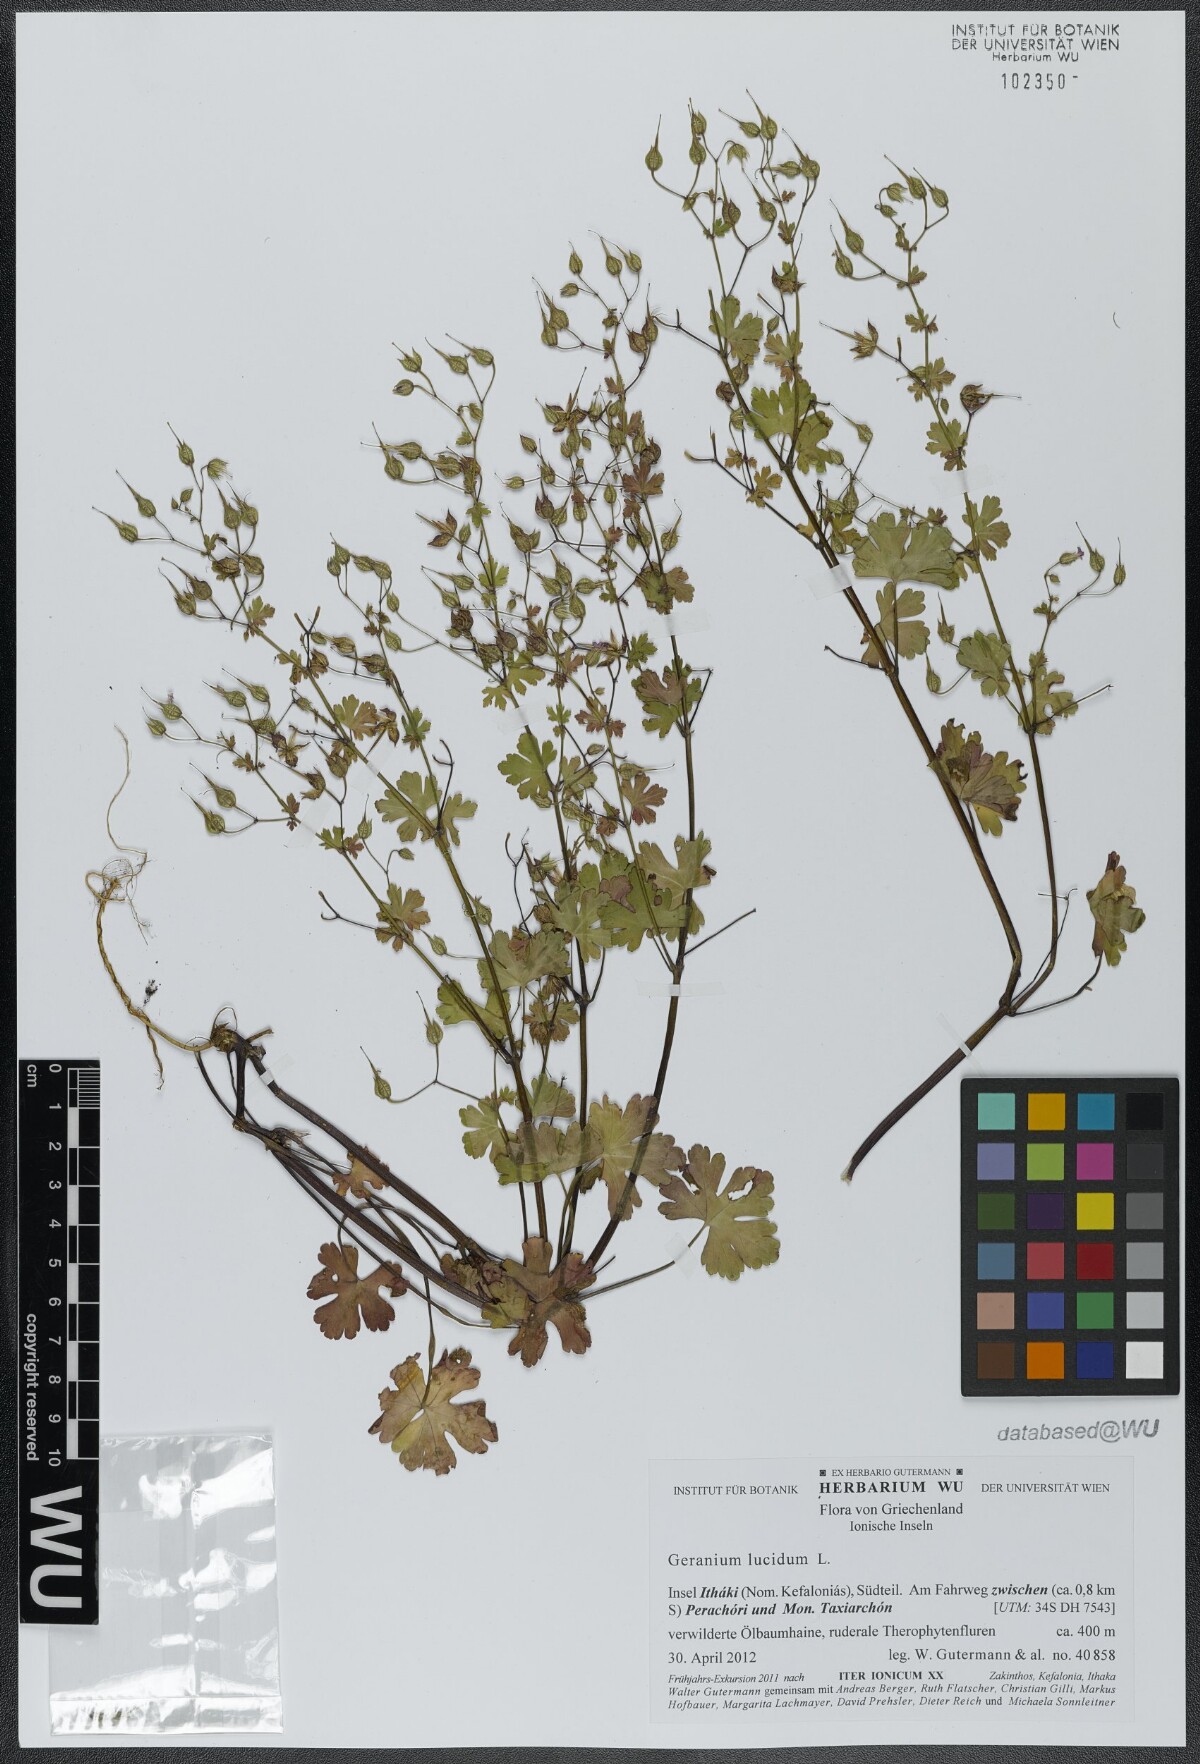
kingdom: Plantae
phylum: Tracheophyta
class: Magnoliopsida
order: Geraniales
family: Geraniaceae
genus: Geranium
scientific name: Geranium lucidum
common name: Shining crane's-bill
